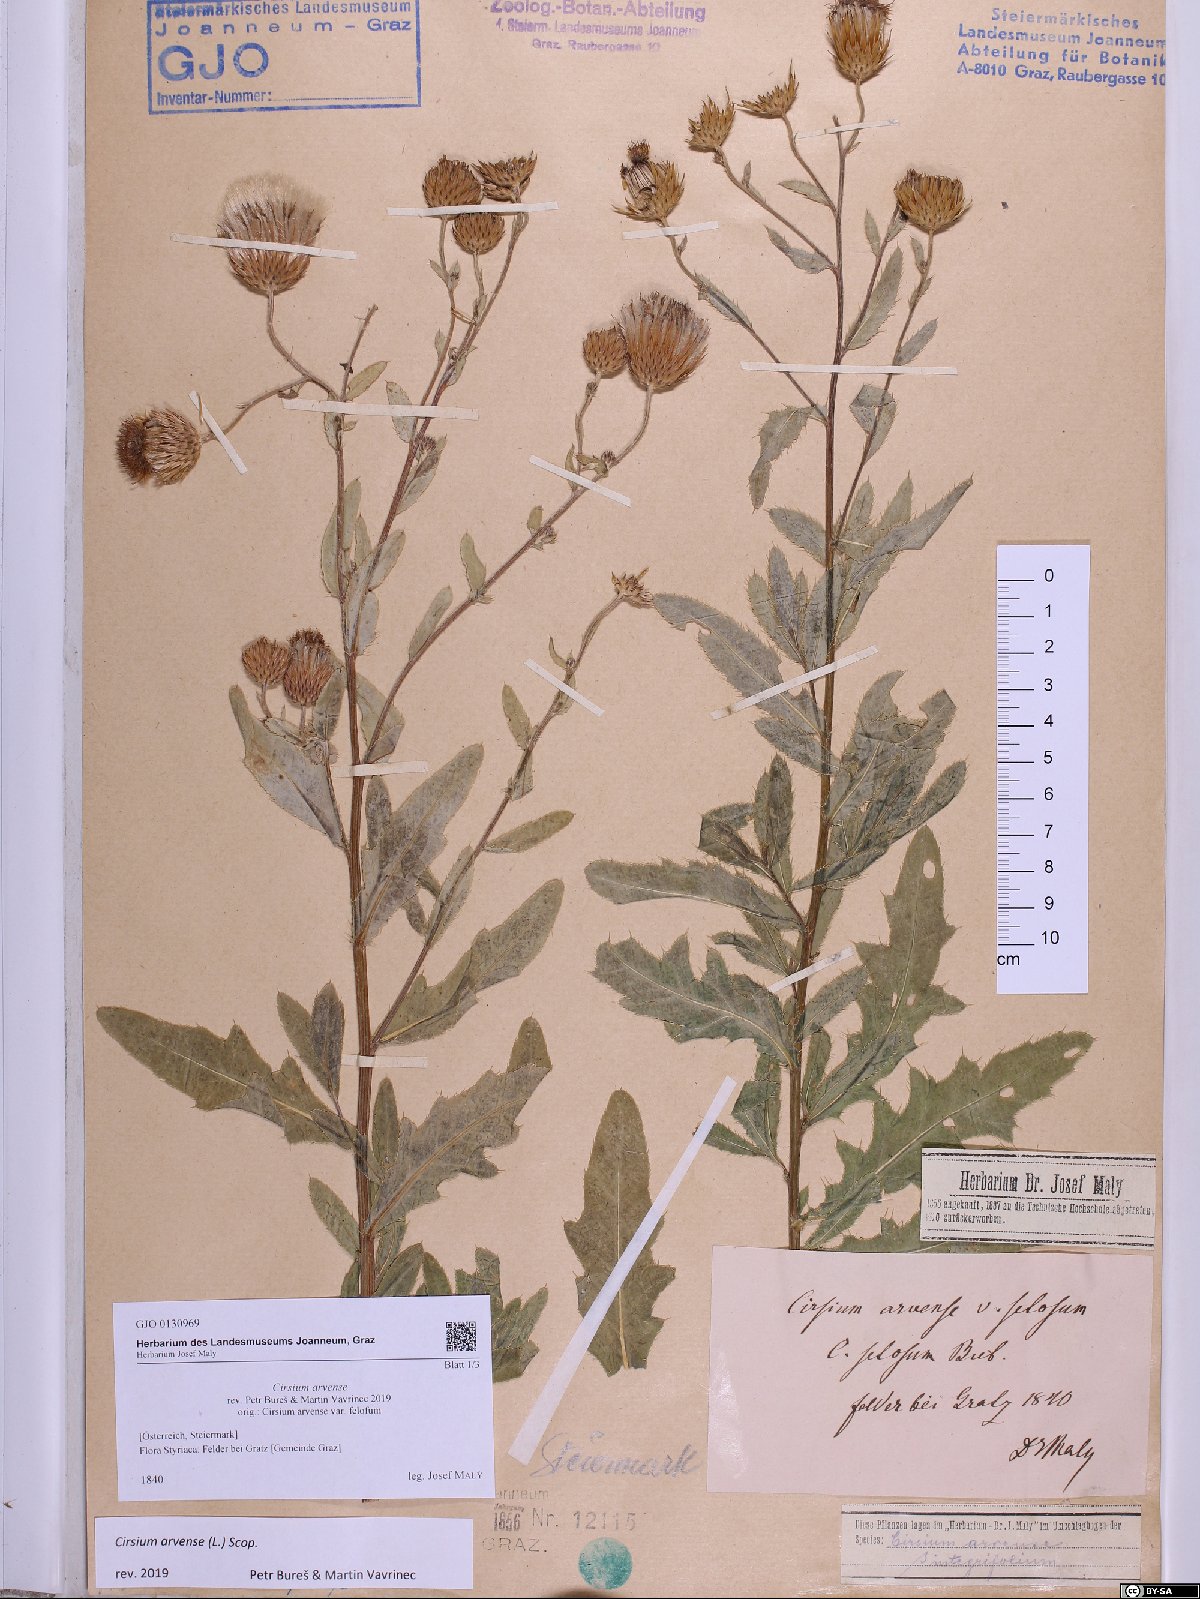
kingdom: Plantae
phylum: Tracheophyta
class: Magnoliopsida
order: Asterales
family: Asteraceae
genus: Cirsium
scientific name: Cirsium arvense
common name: Creeping thistle
